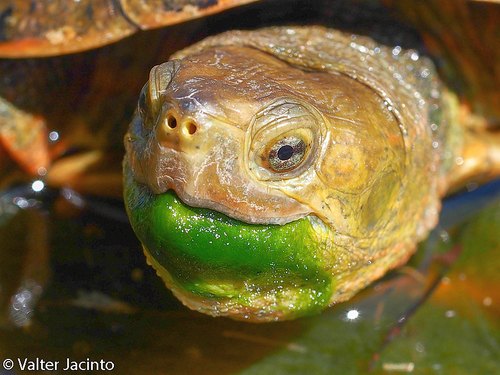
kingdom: Animalia
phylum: Chordata
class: Testudines
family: Geoemydidae
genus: Mauremys
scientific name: Mauremys leprosa
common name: Mediterranean pond turtle
